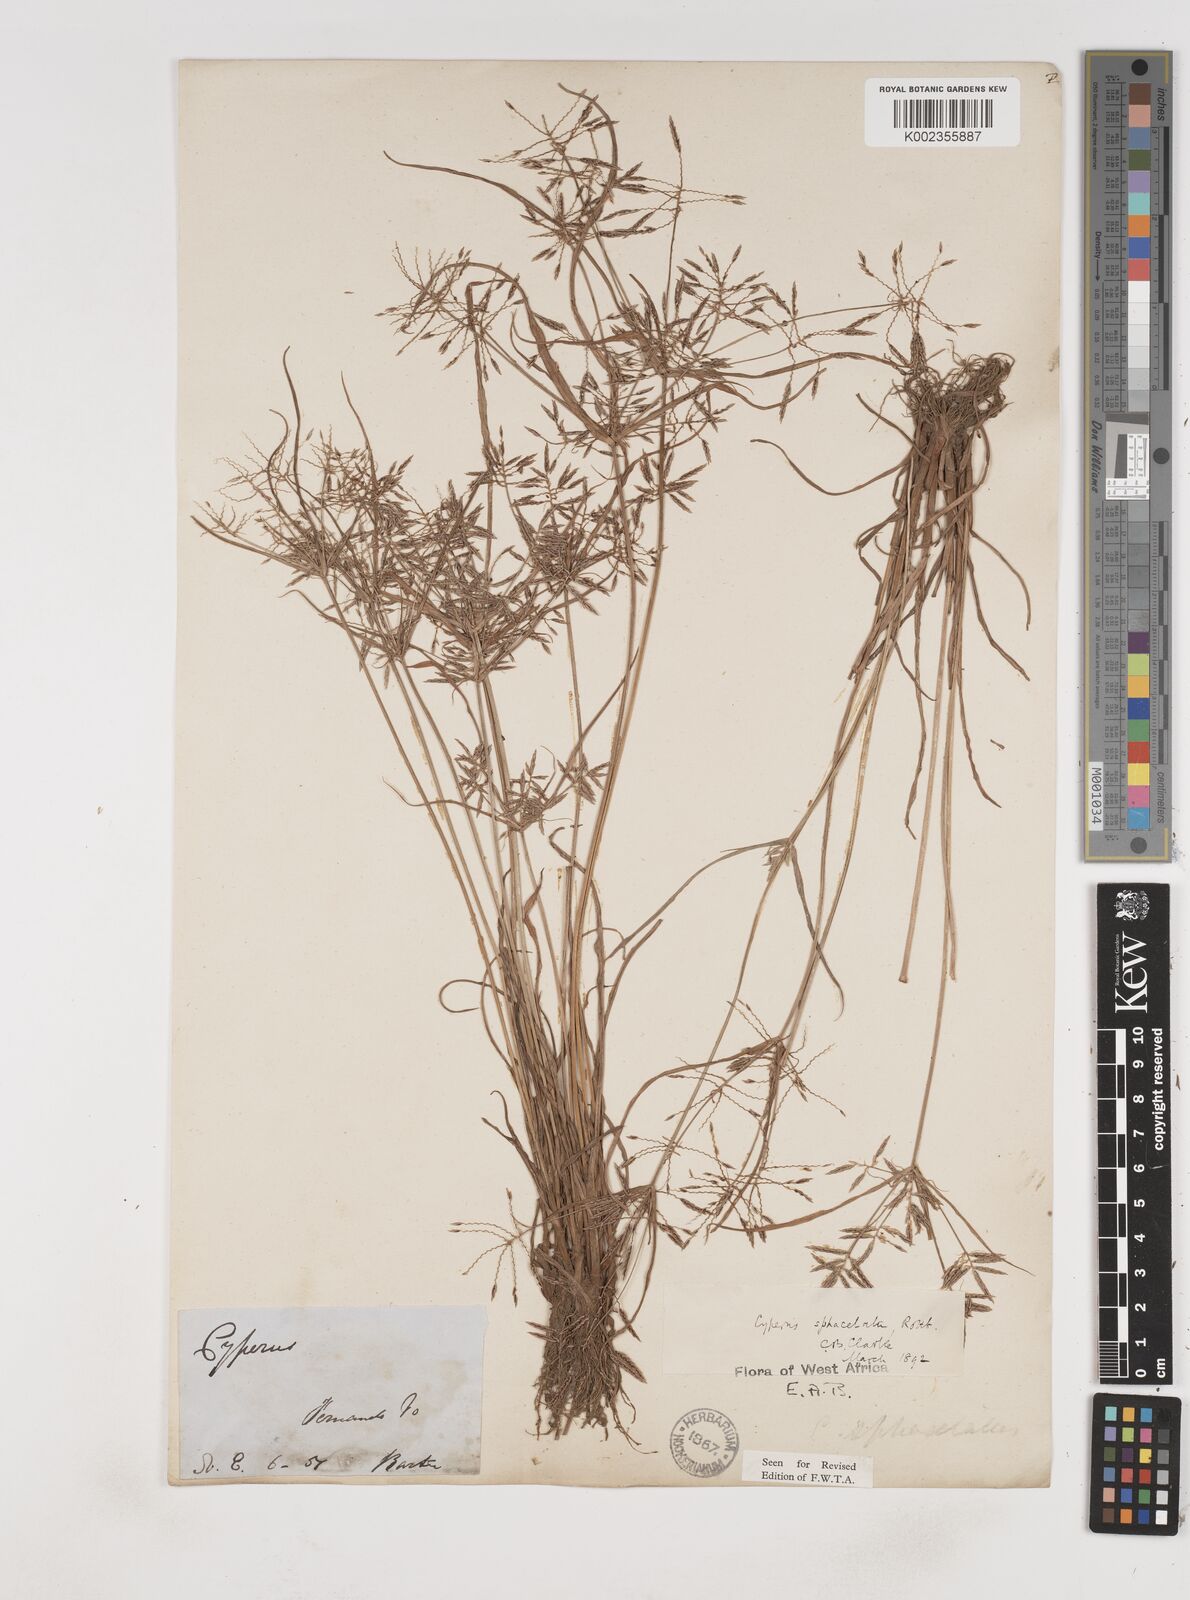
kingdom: Plantae
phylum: Tracheophyta
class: Liliopsida
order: Poales
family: Cyperaceae
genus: Cyperus
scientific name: Cyperus sphacelatus
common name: Roadside flatsedge
